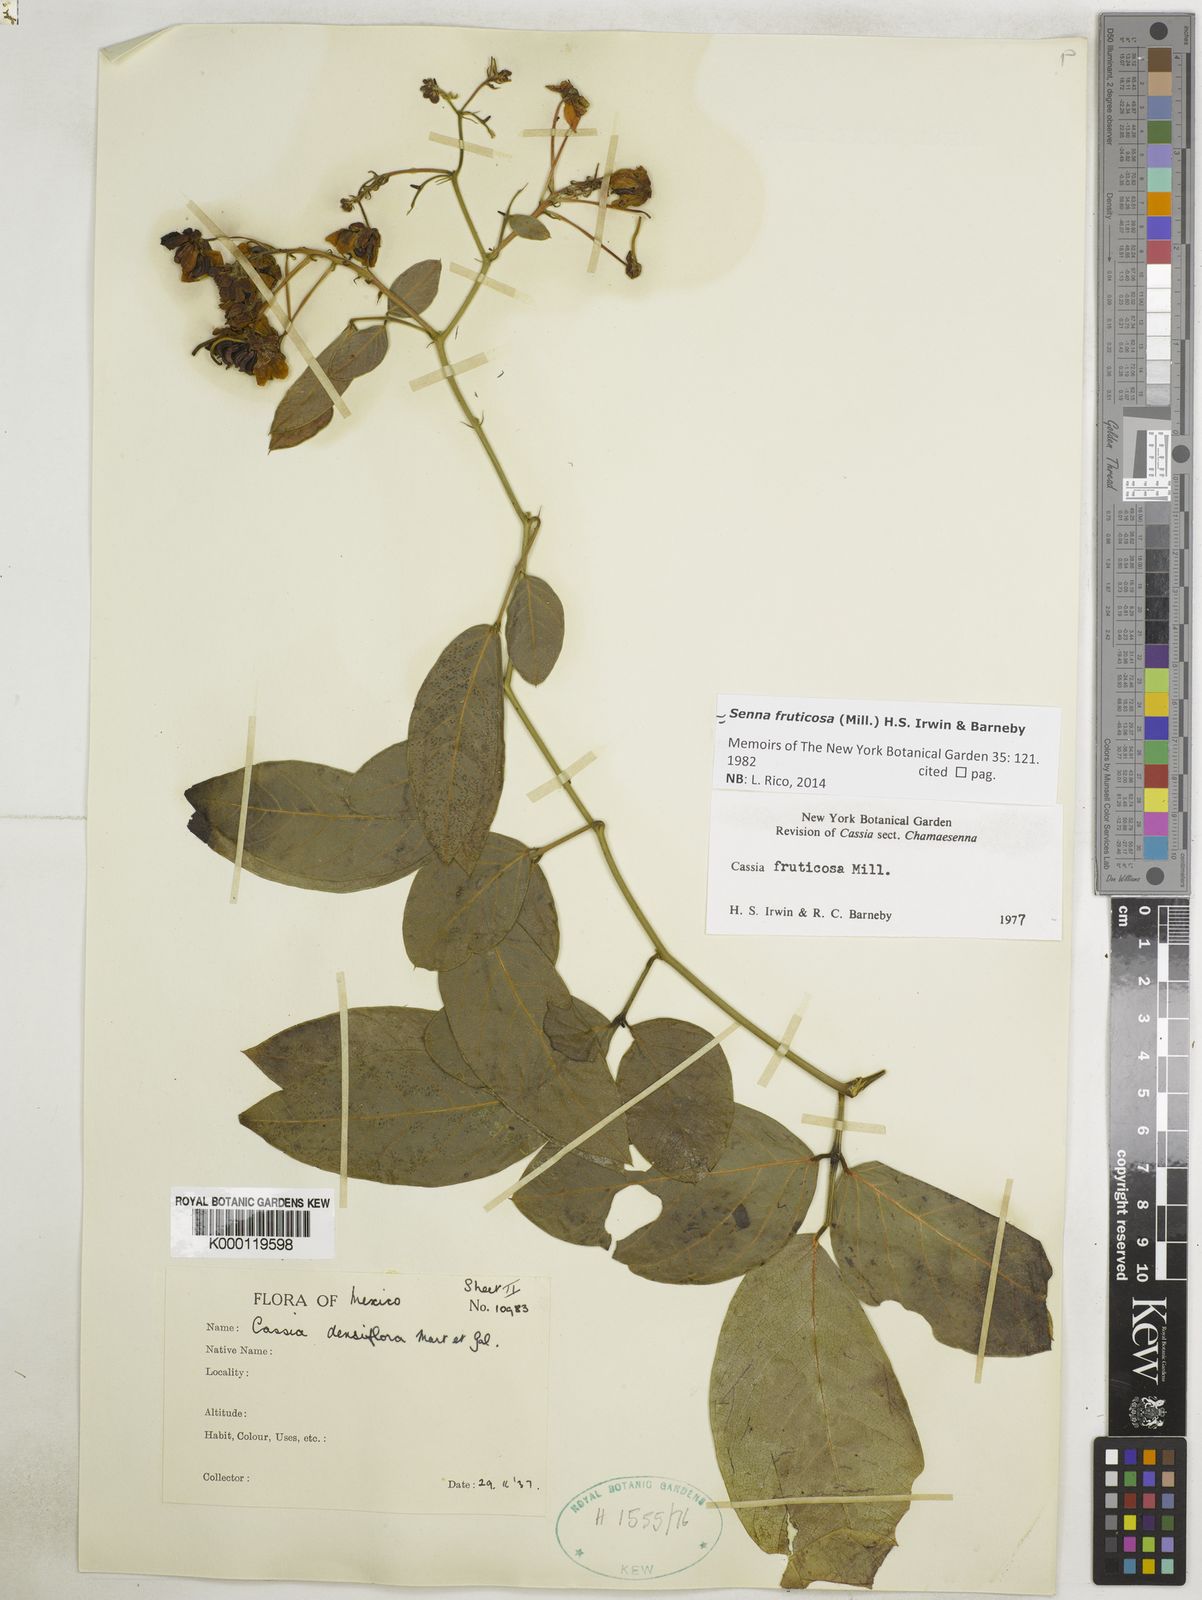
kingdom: Plantae
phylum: Tracheophyta
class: Magnoliopsida
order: Fabales
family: Fabaceae
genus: Senna
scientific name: Senna fruticosa
